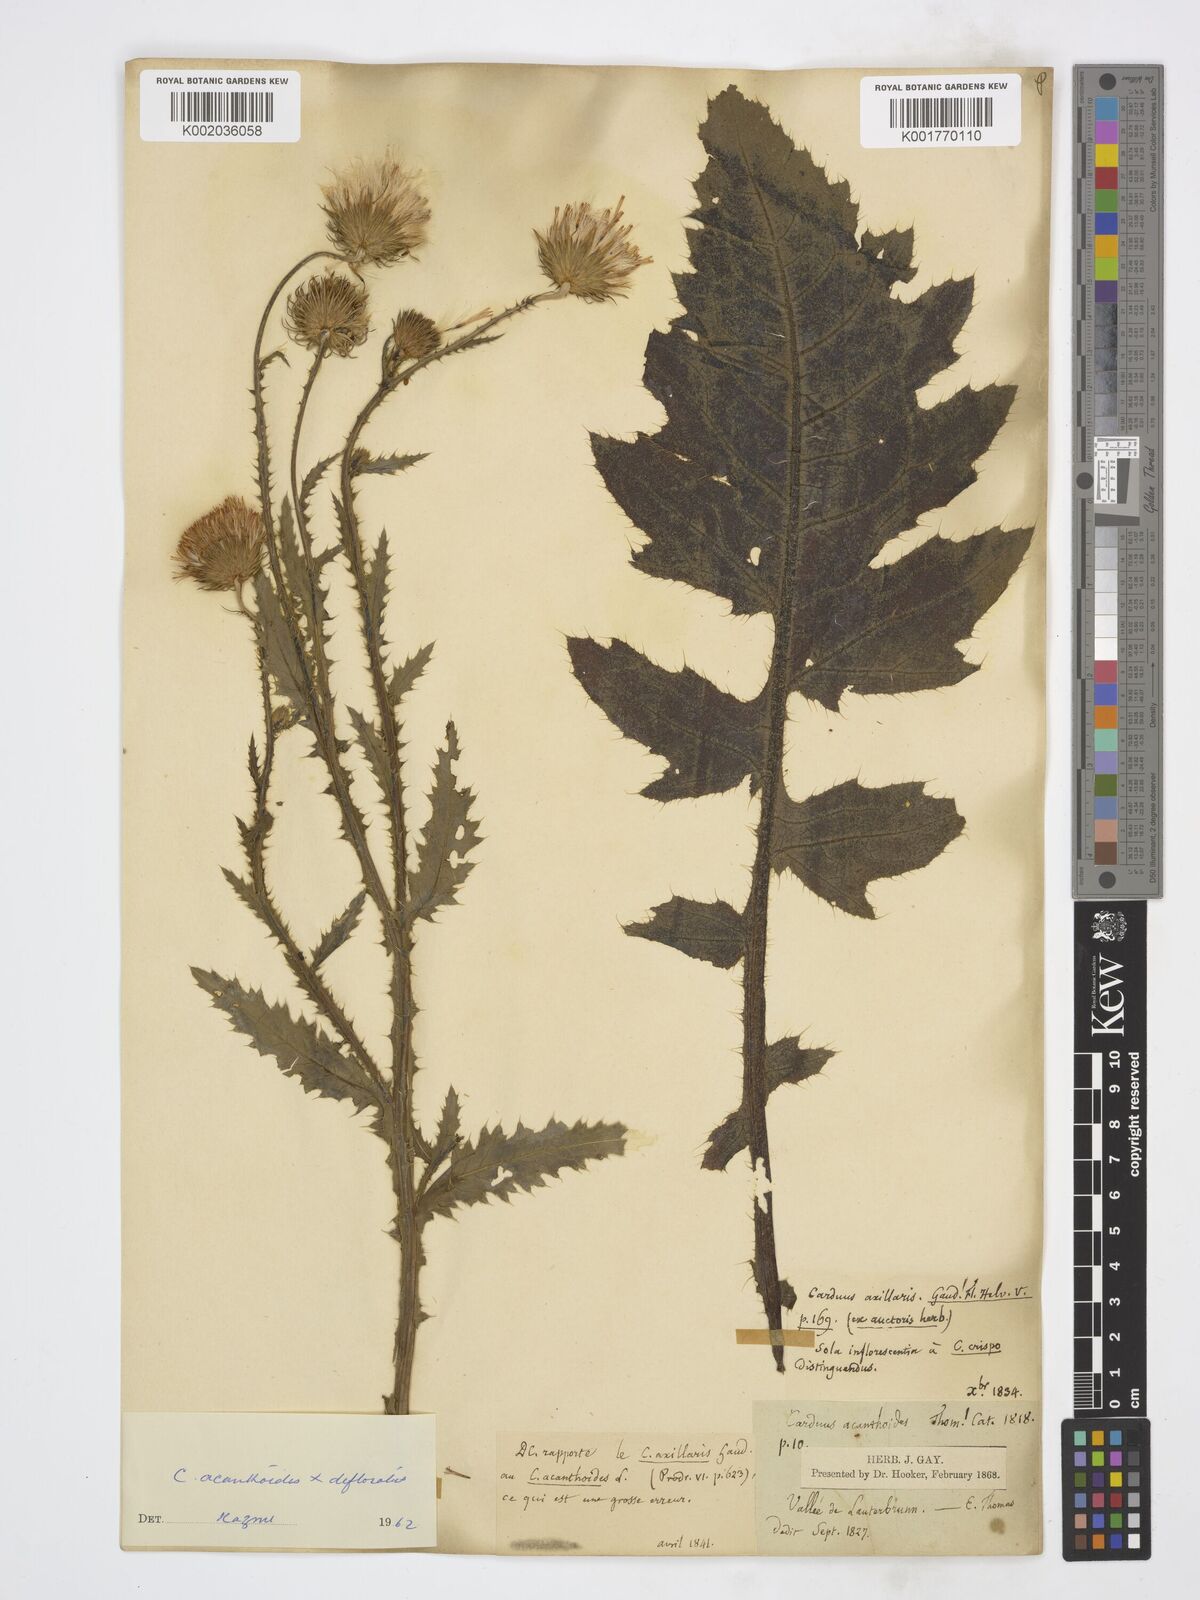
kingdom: Plantae
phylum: Tracheophyta
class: Magnoliopsida
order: Asterales
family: Asteraceae
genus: Carduus
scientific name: Carduus crispus
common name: Welted thistle
